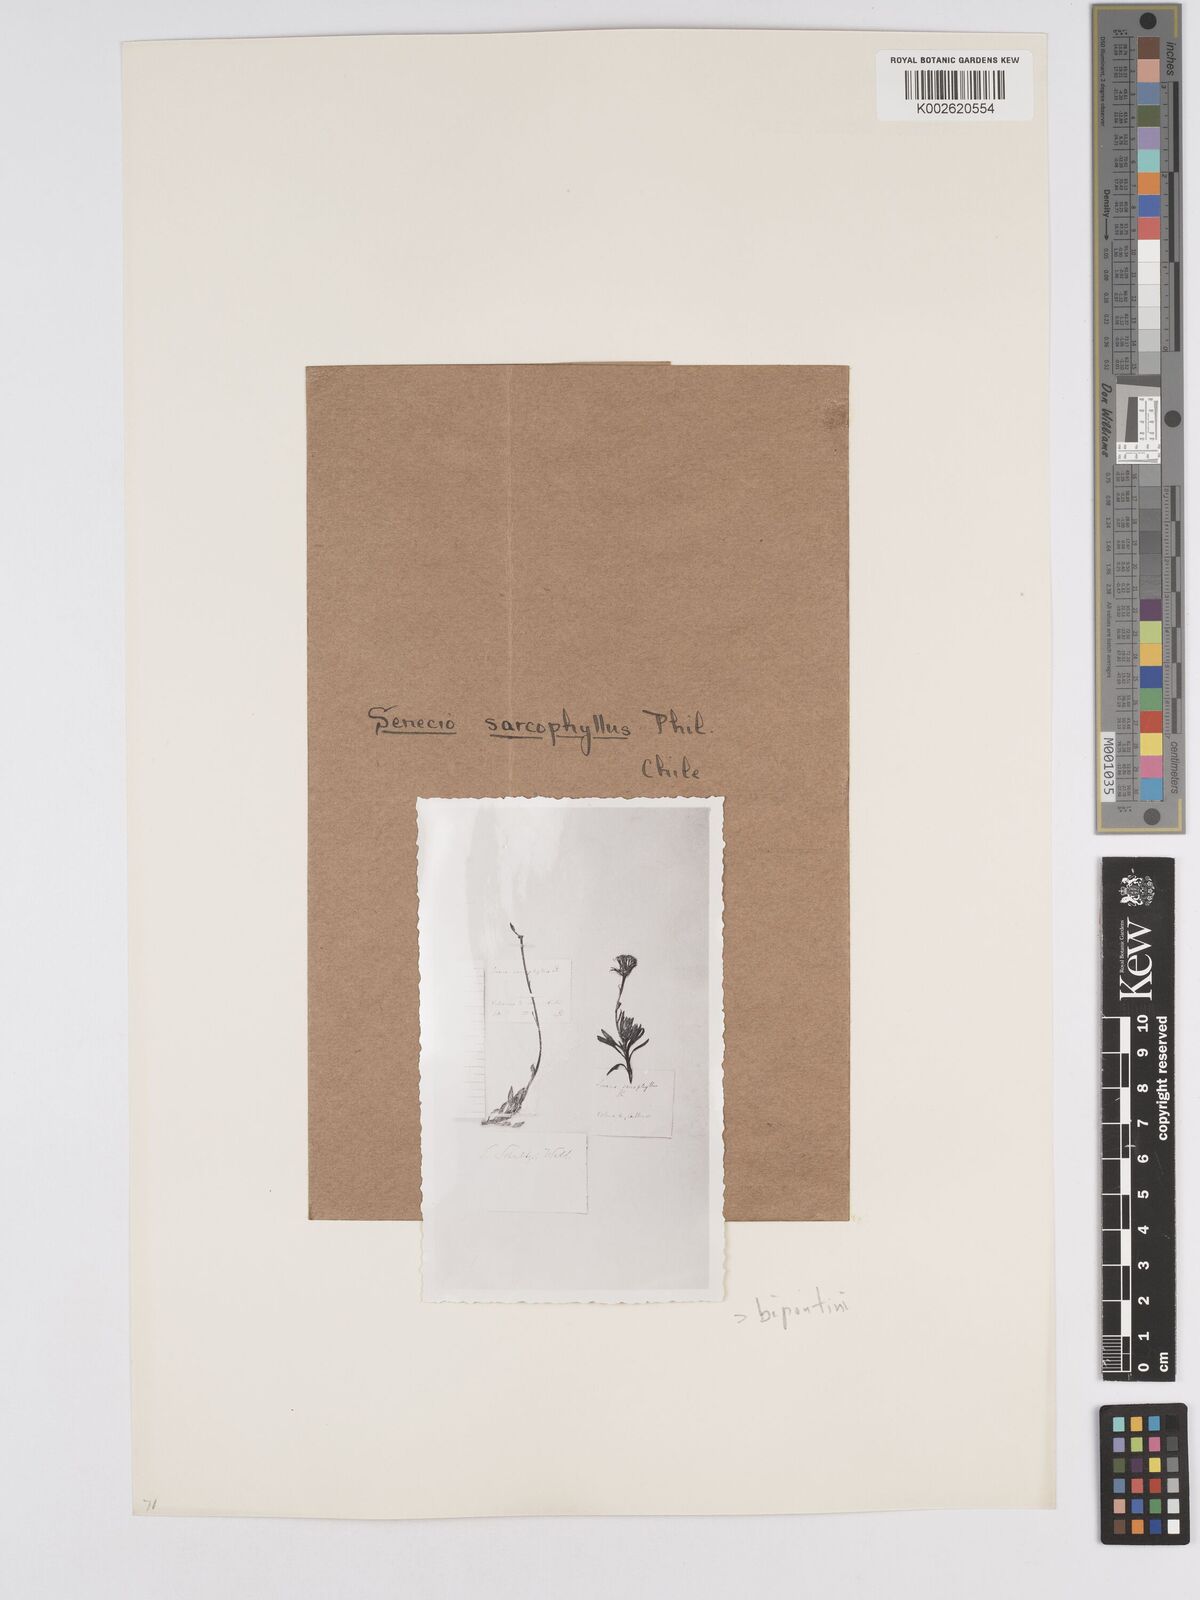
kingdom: Plantae
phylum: Tracheophyta
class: Magnoliopsida
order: Asterales
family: Asteraceae
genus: Senecio
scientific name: Senecio bipontinii
